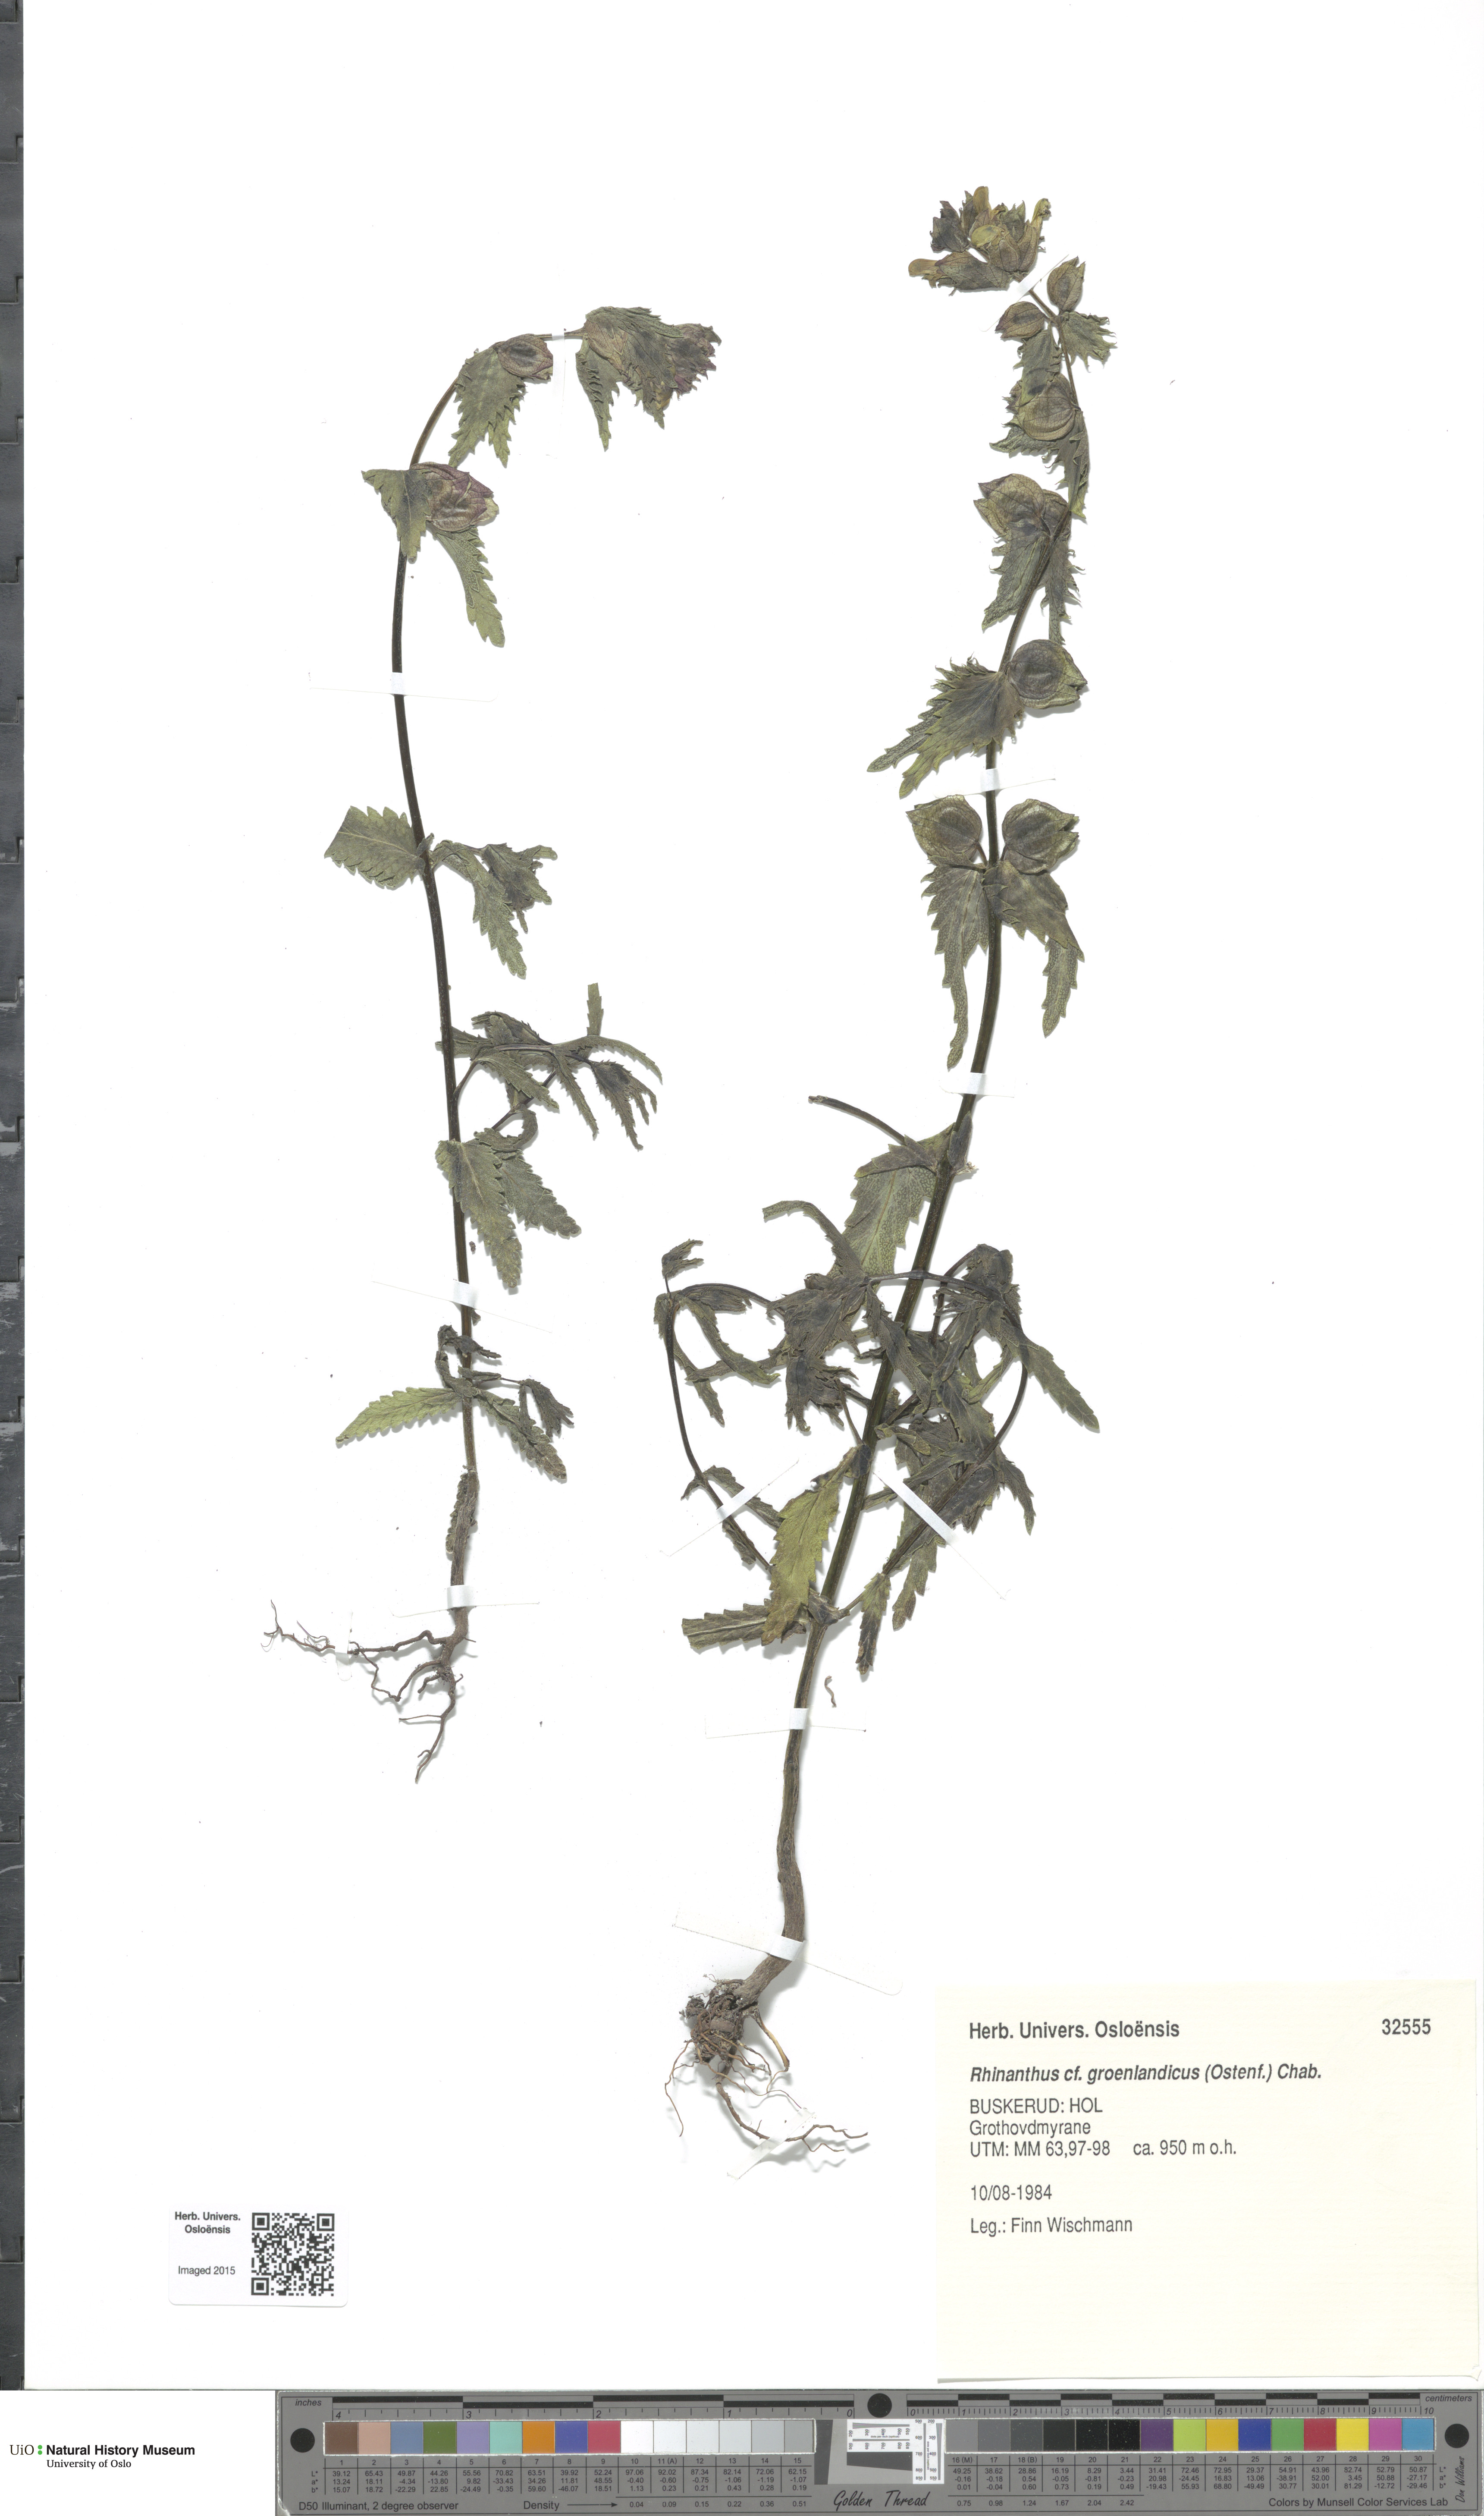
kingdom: Plantae
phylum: Tracheophyta
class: Magnoliopsida
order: Lamiales
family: Orobanchaceae
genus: Rhinanthus
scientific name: Rhinanthus groenlandicus
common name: Little yellow rattle
